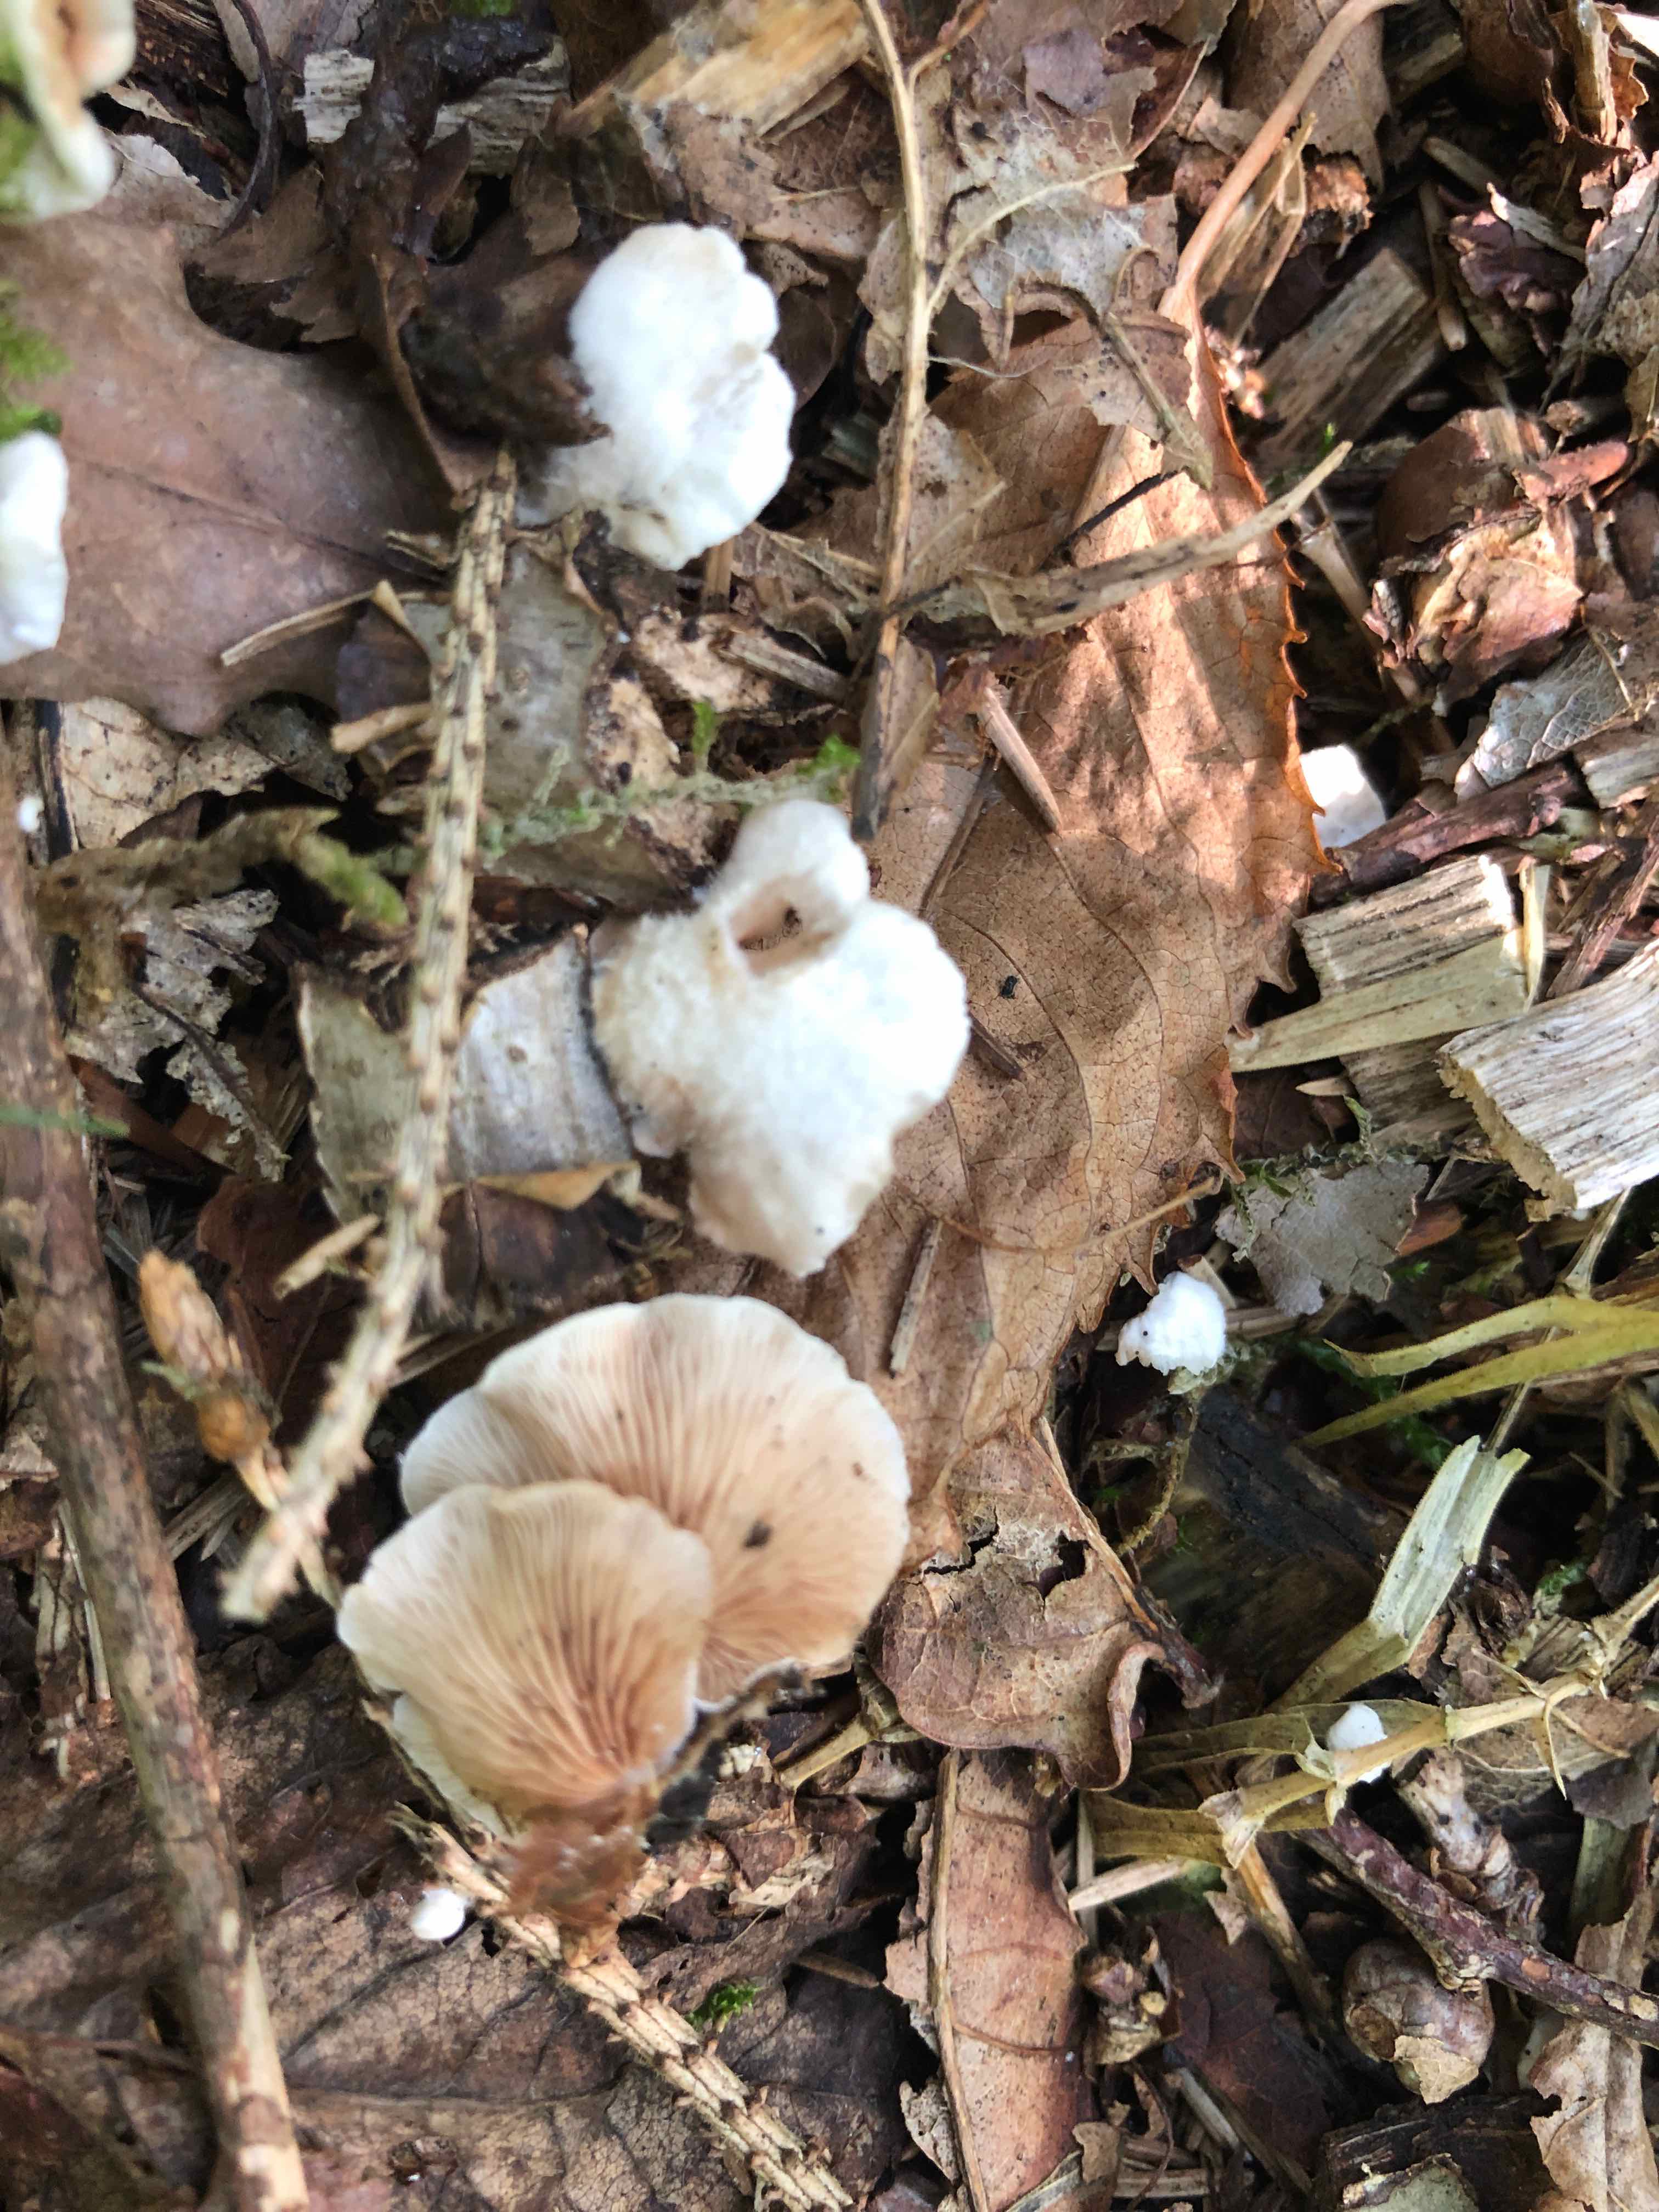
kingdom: Fungi
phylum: Basidiomycota
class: Agaricomycetes
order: Agaricales
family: Crepidotaceae
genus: Crepidotus
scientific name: Crepidotus variabilis
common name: forskelligformet muslingesvamp
